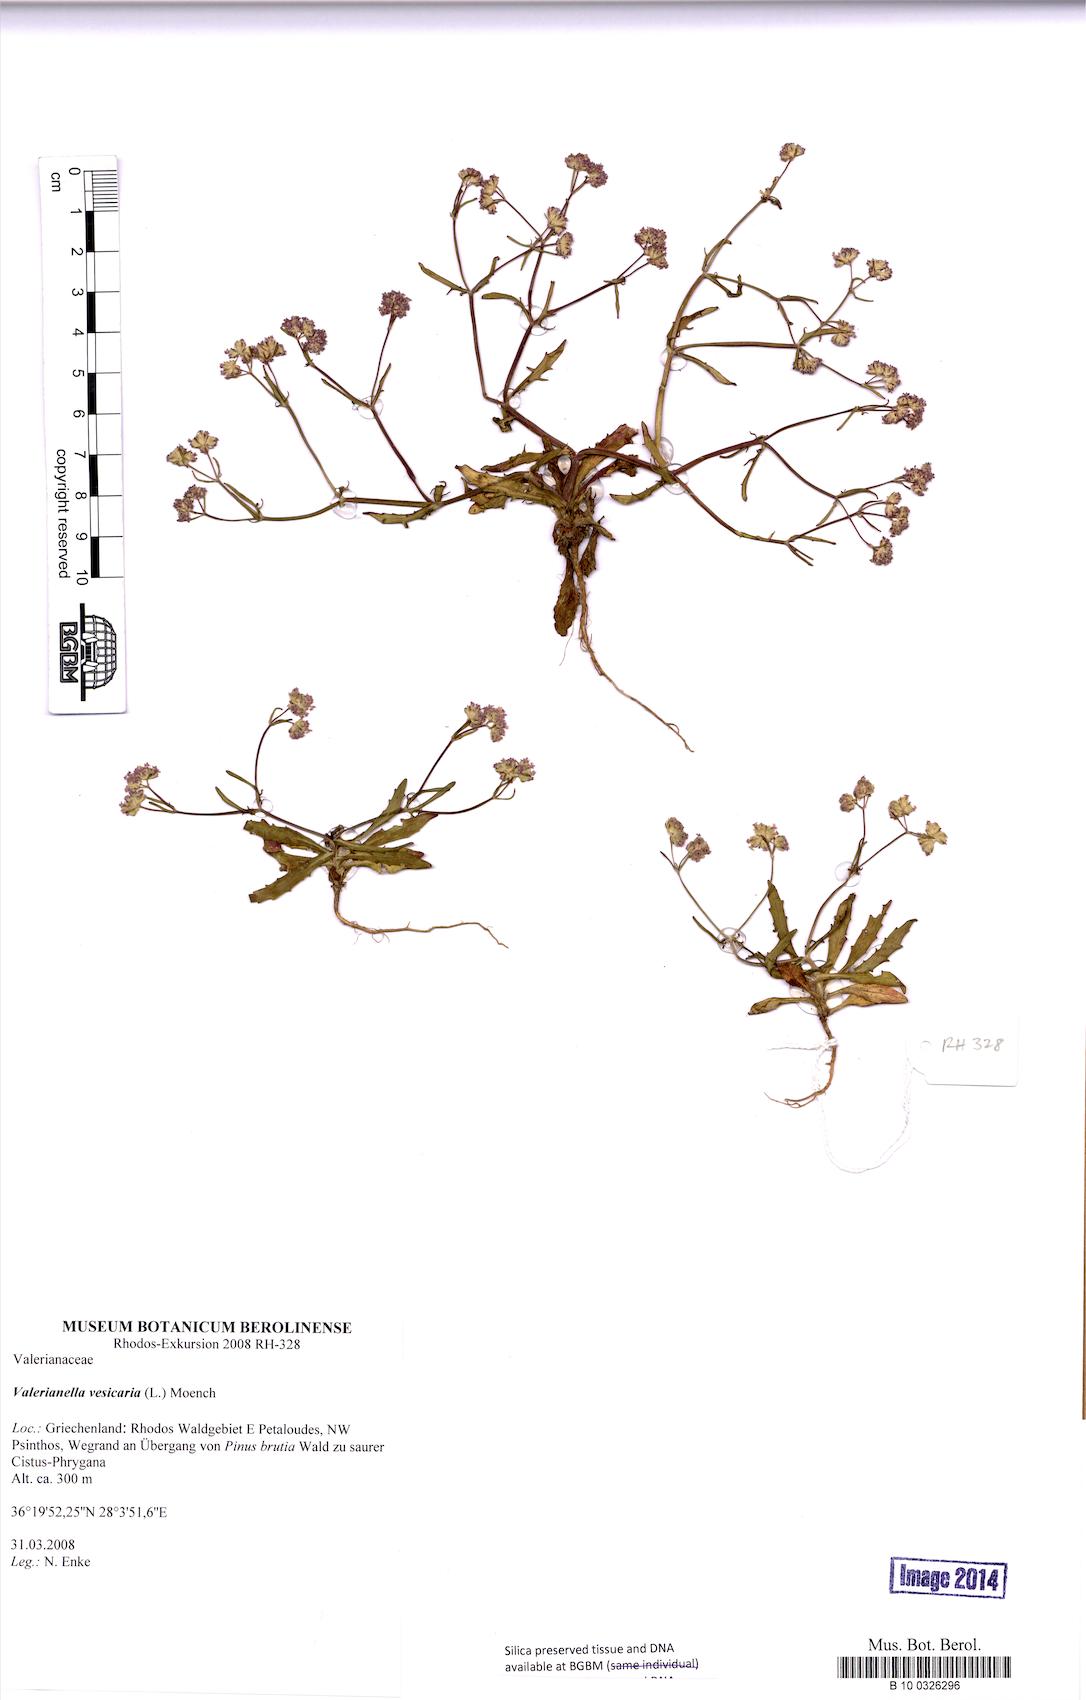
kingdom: Plantae
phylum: Tracheophyta
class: Magnoliopsida
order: Dipsacales
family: Caprifoliaceae
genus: Valerianella
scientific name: Valerianella vesicaria
